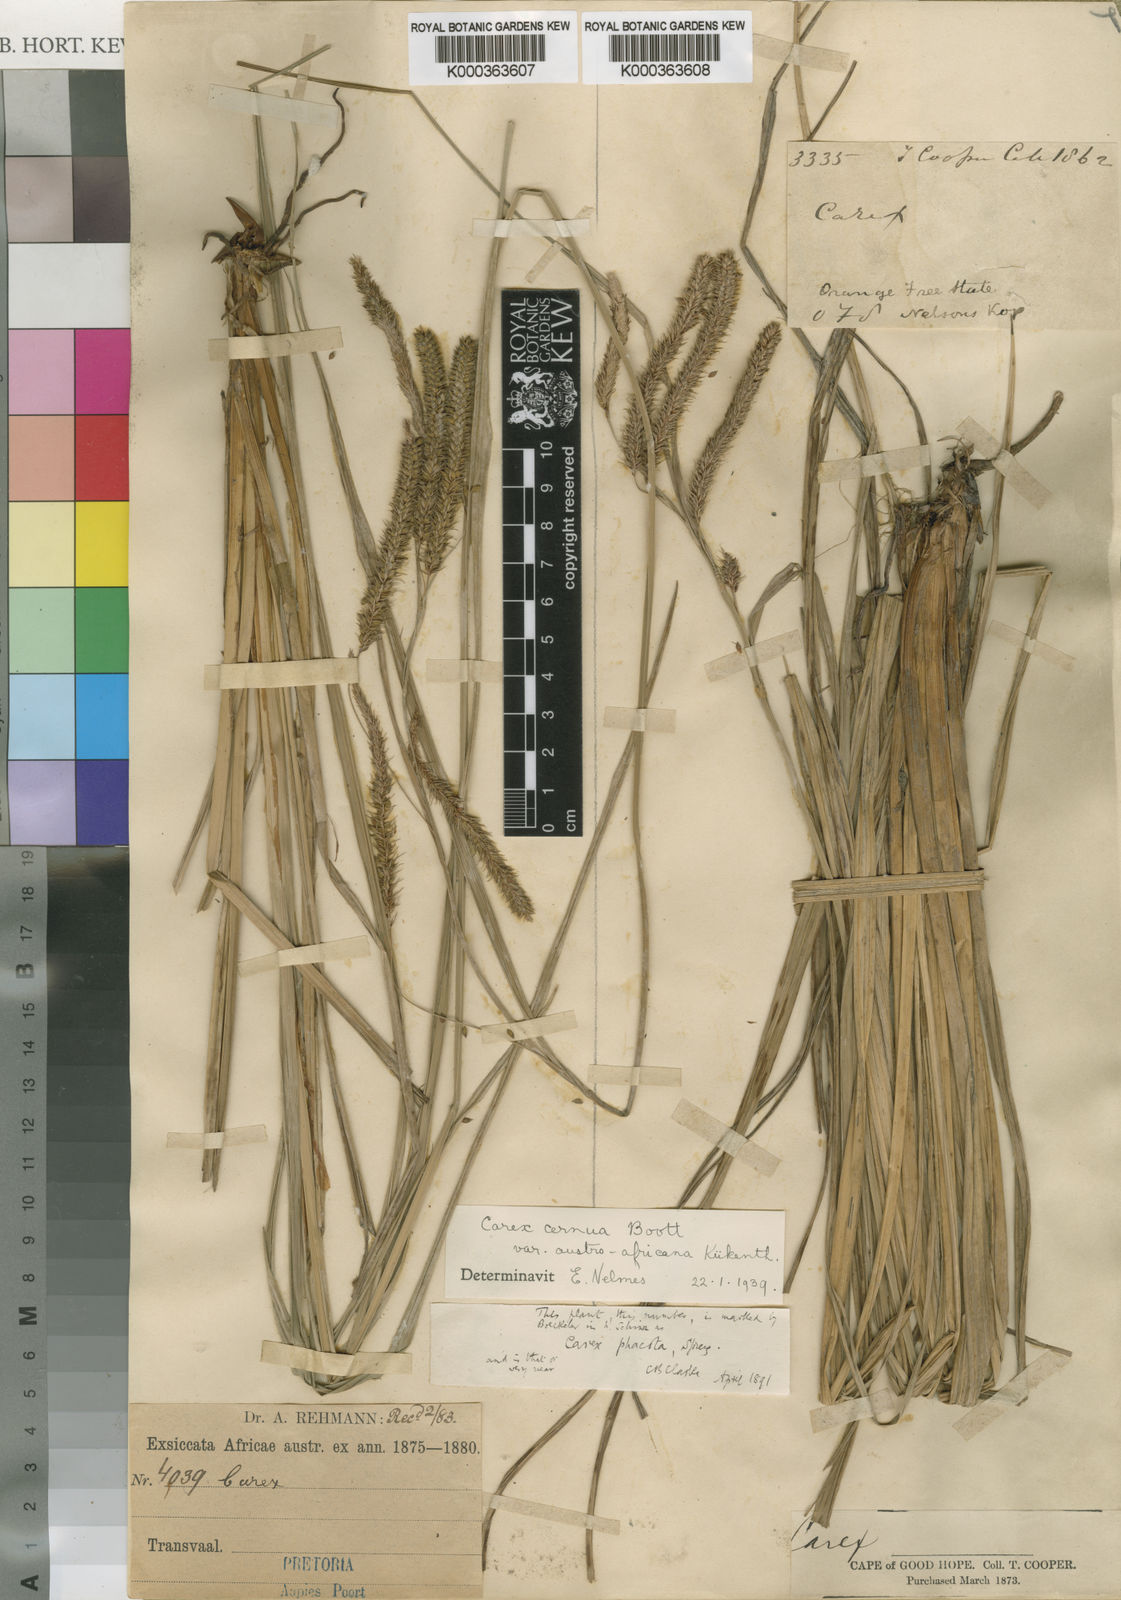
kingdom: Plantae
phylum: Tracheophyta
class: Liliopsida
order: Poales
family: Cyperaceae
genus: Carex
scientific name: Carex
